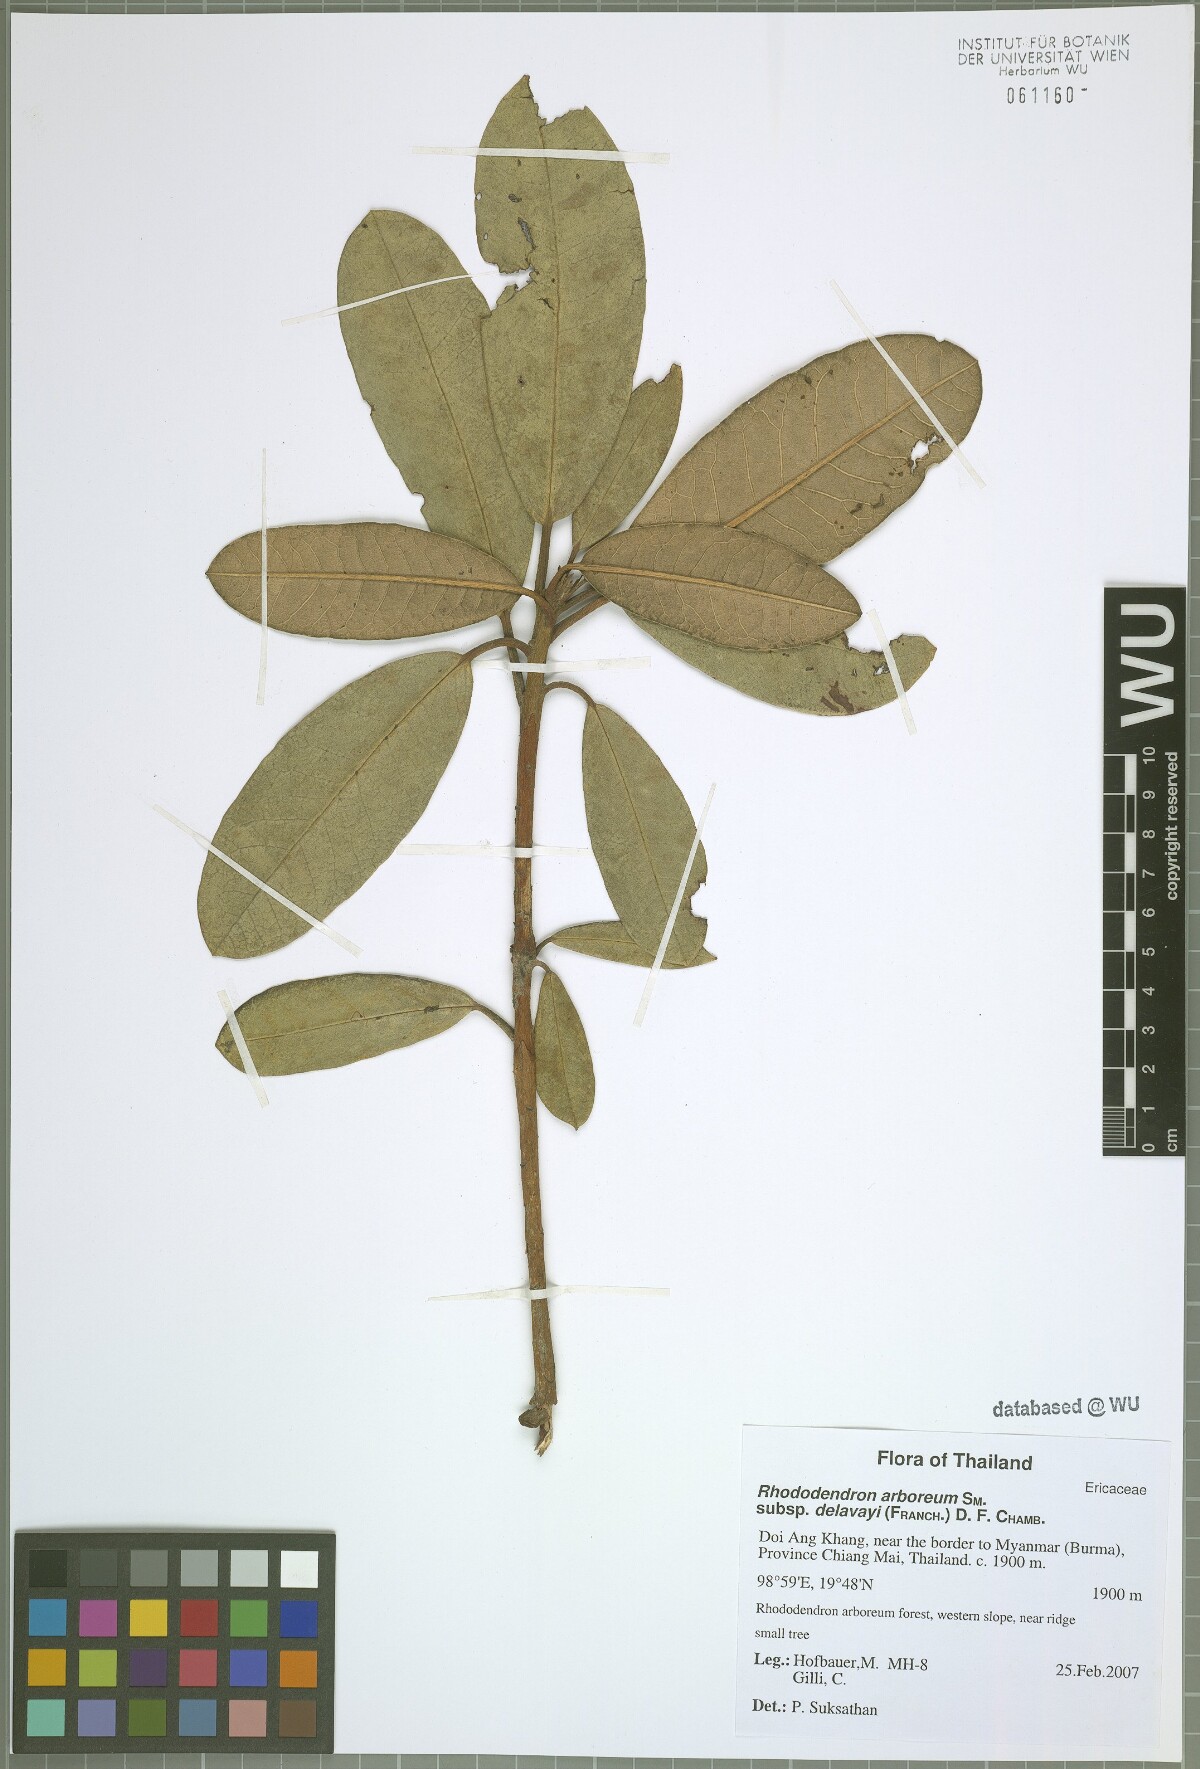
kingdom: Plantae
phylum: Tracheophyta
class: Magnoliopsida
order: Ericales
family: Ericaceae
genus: Rhododendron
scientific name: Rhododendron delavayi
